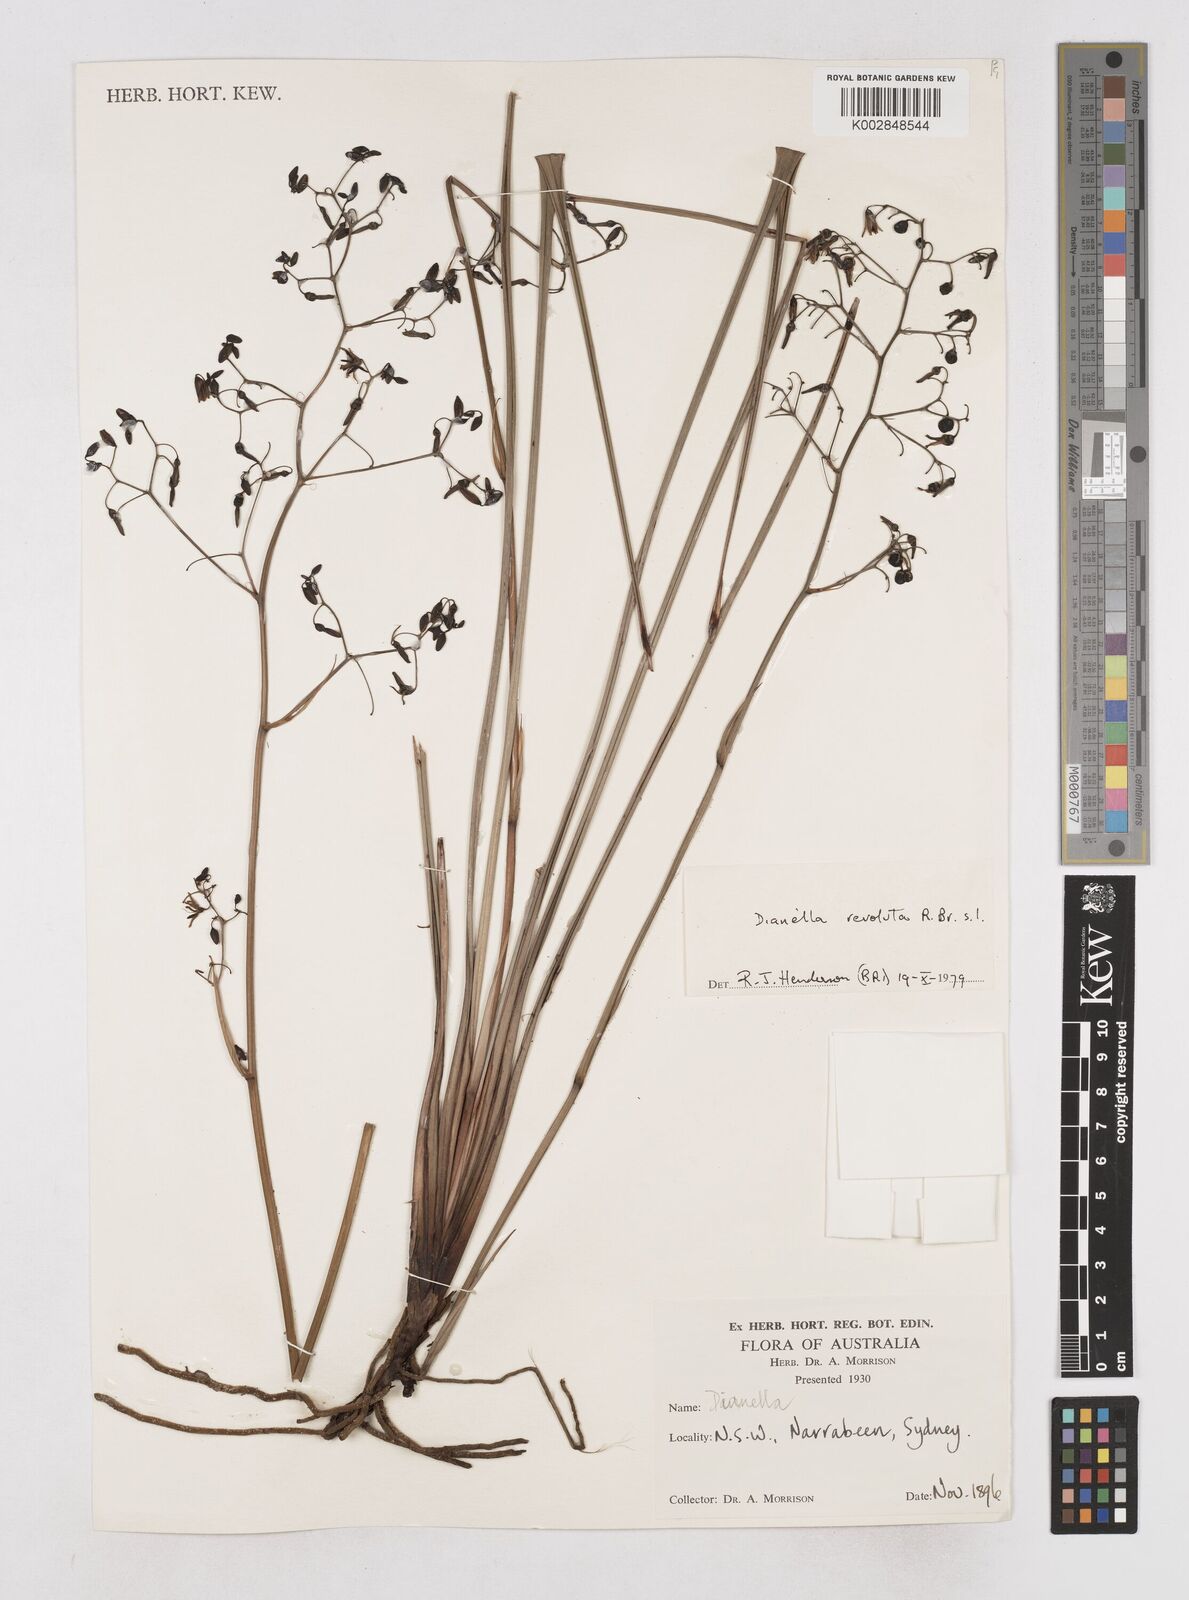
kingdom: Plantae
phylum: Tracheophyta
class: Liliopsida
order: Asparagales
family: Asphodelaceae
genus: Dianella
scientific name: Dianella revoluta
